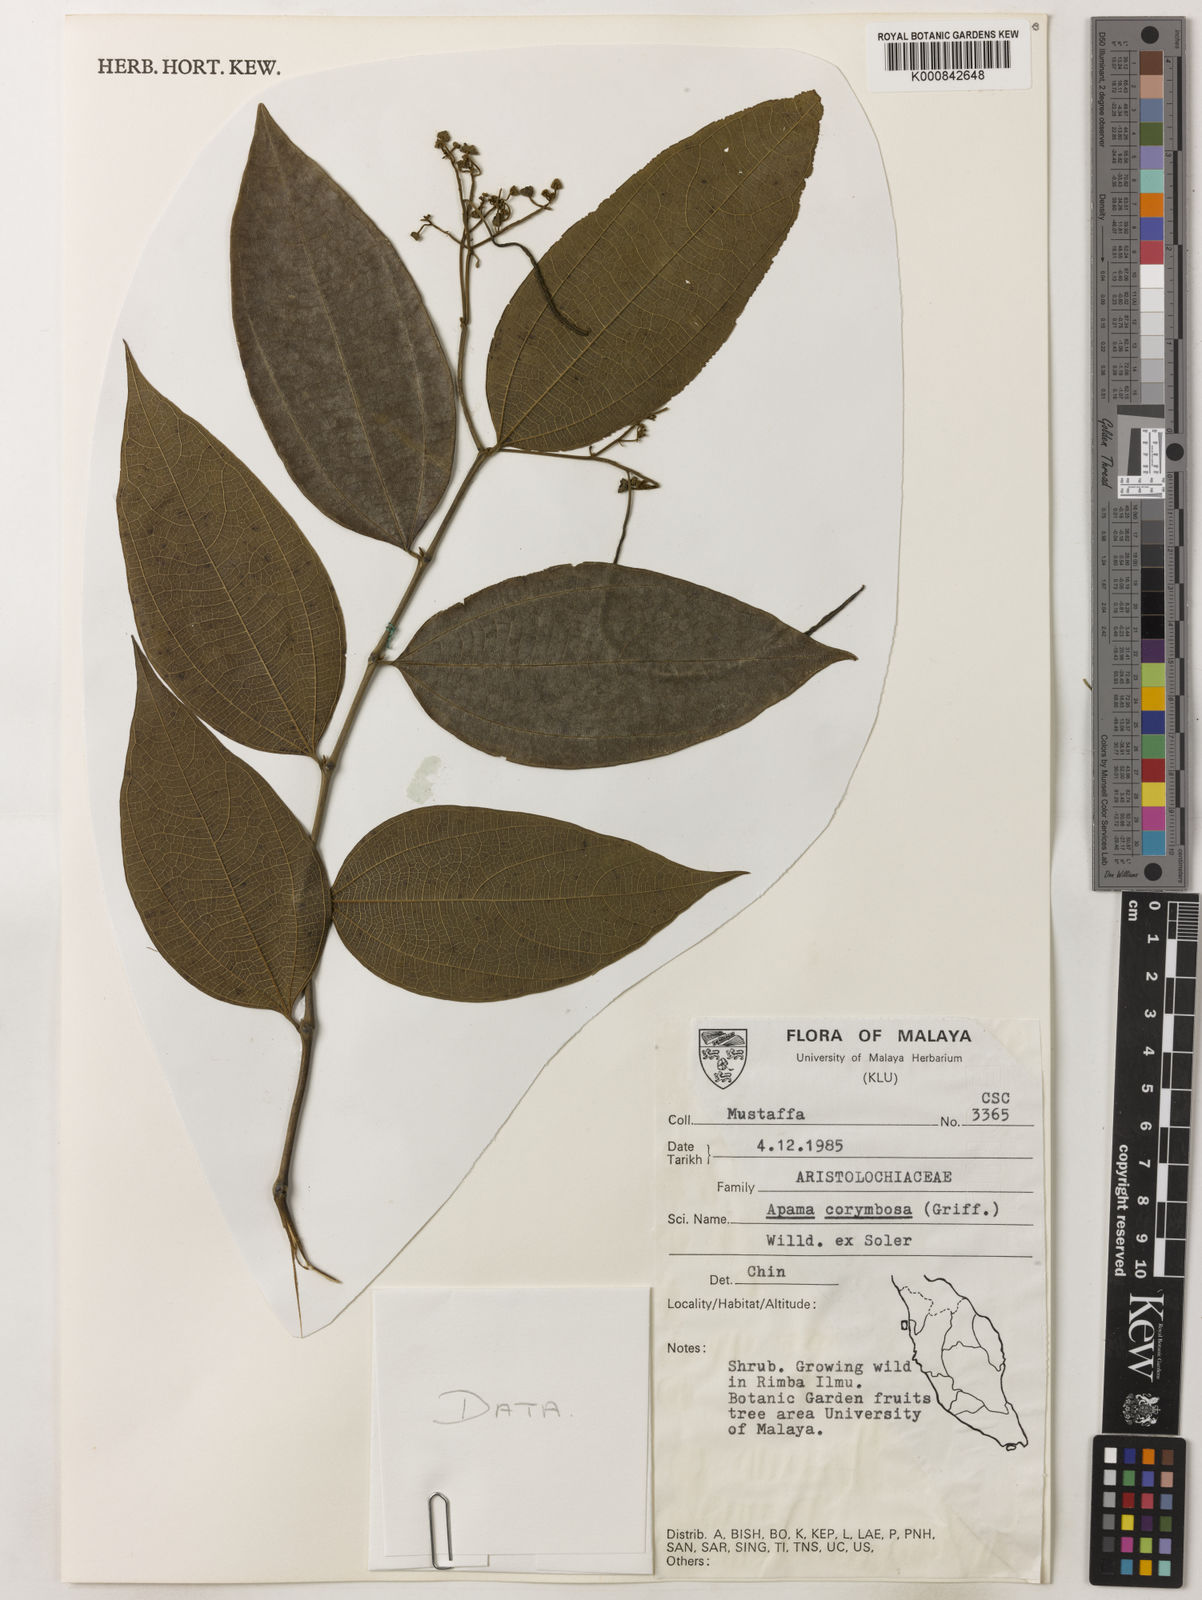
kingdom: Plantae
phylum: Tracheophyta
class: Magnoliopsida
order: Piperales
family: Aristolochiaceae
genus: Thottea
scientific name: Thottea piperiformis
